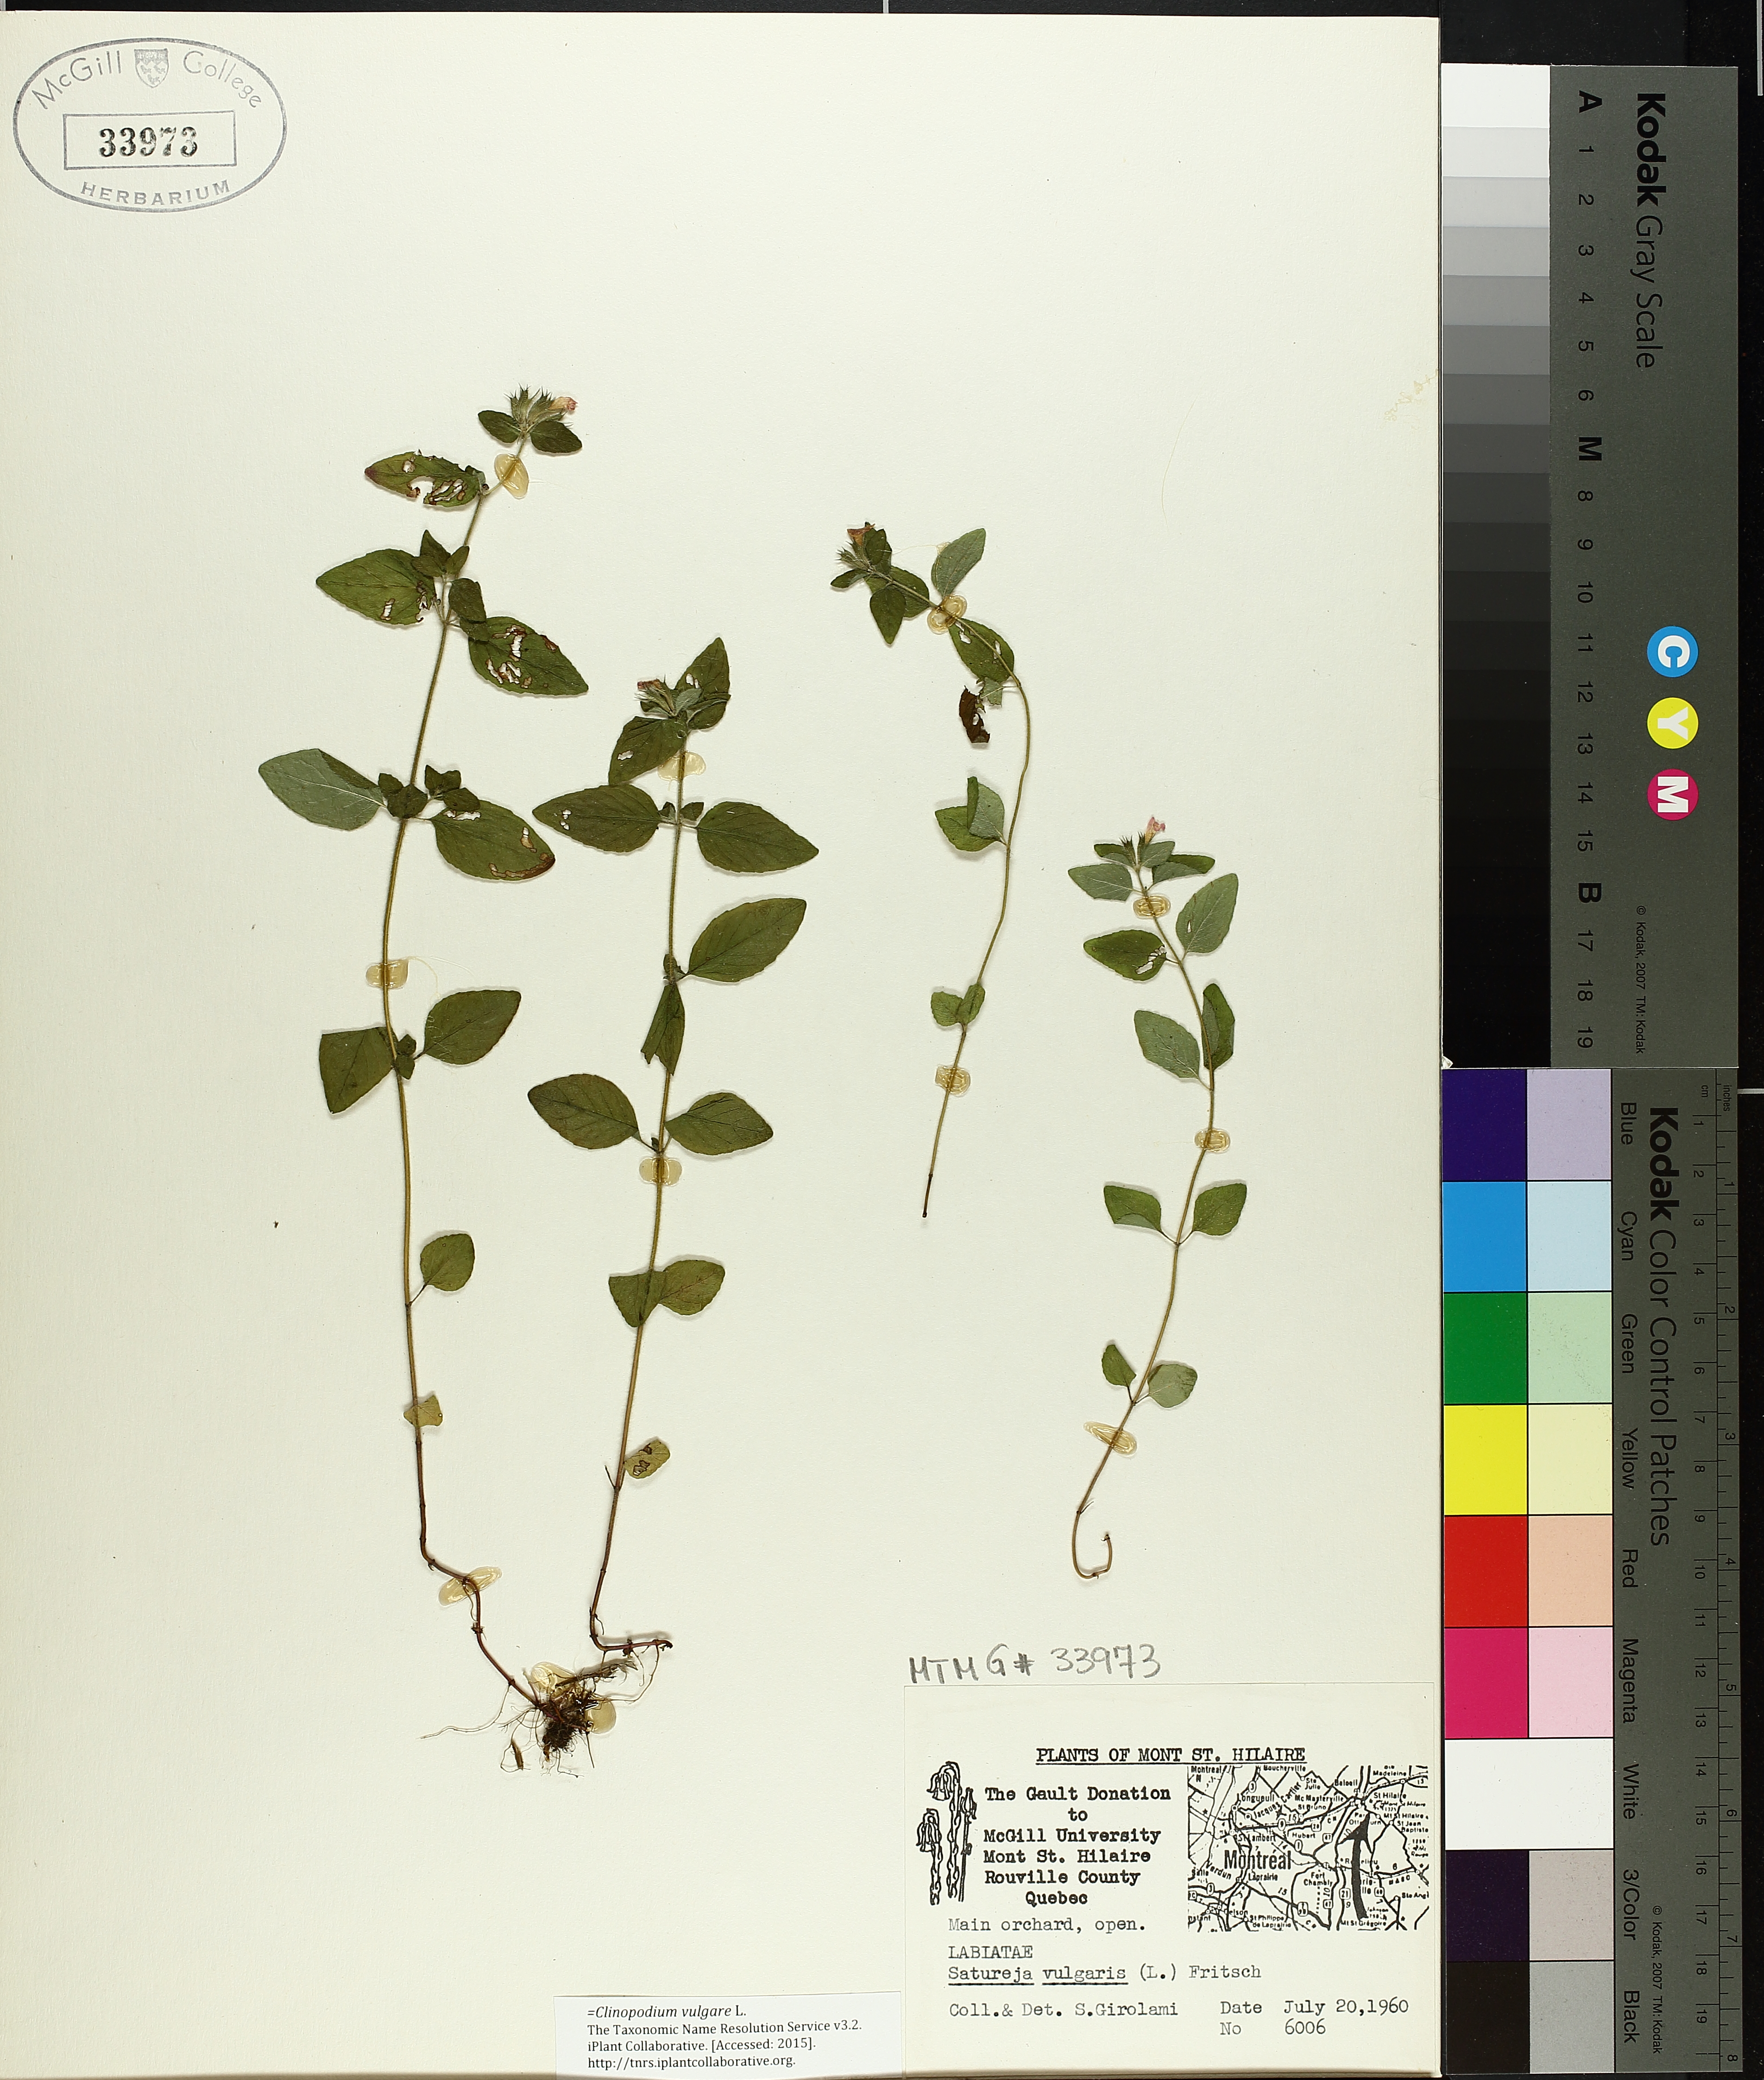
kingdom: Plantae
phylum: Tracheophyta
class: Magnoliopsida
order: Lamiales
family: Lamiaceae
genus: Clinopodium
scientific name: Clinopodium vulgare
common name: Wild basil
